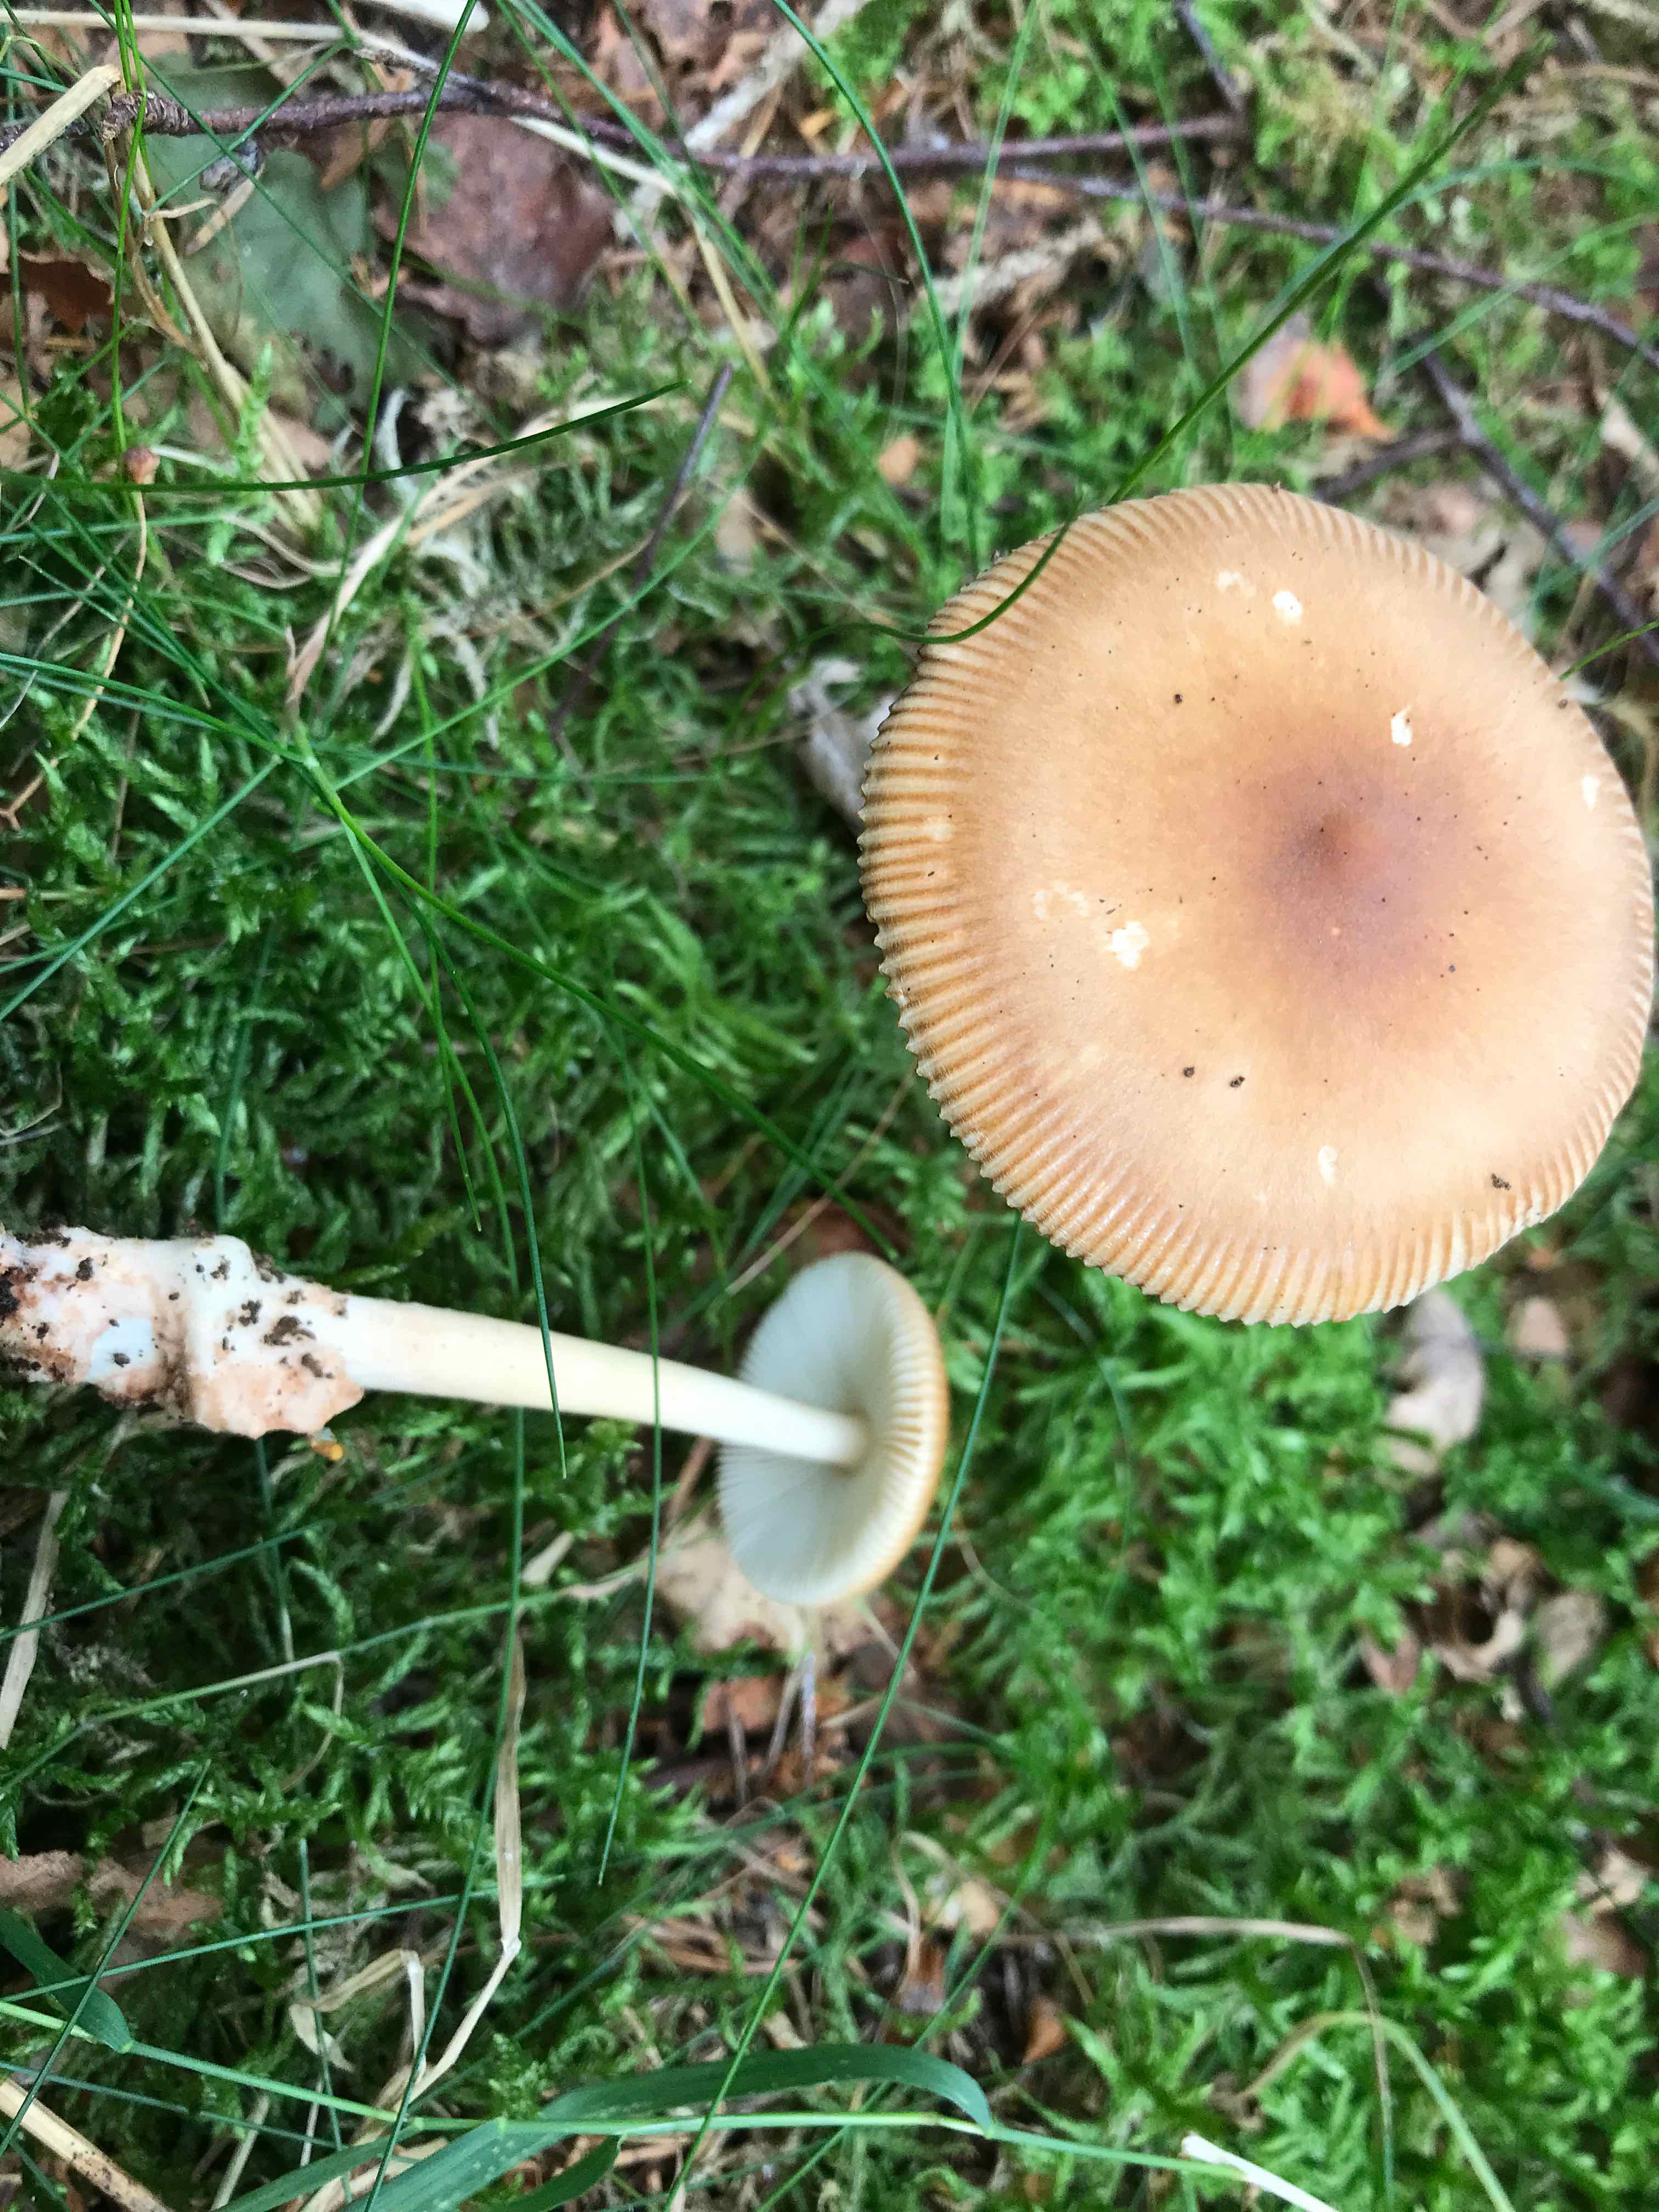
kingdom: Fungi
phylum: Basidiomycota
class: Agaricomycetes
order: Agaricales
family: Amanitaceae
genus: Amanita
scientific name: Amanita fulva
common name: brun kam-fluesvamp
